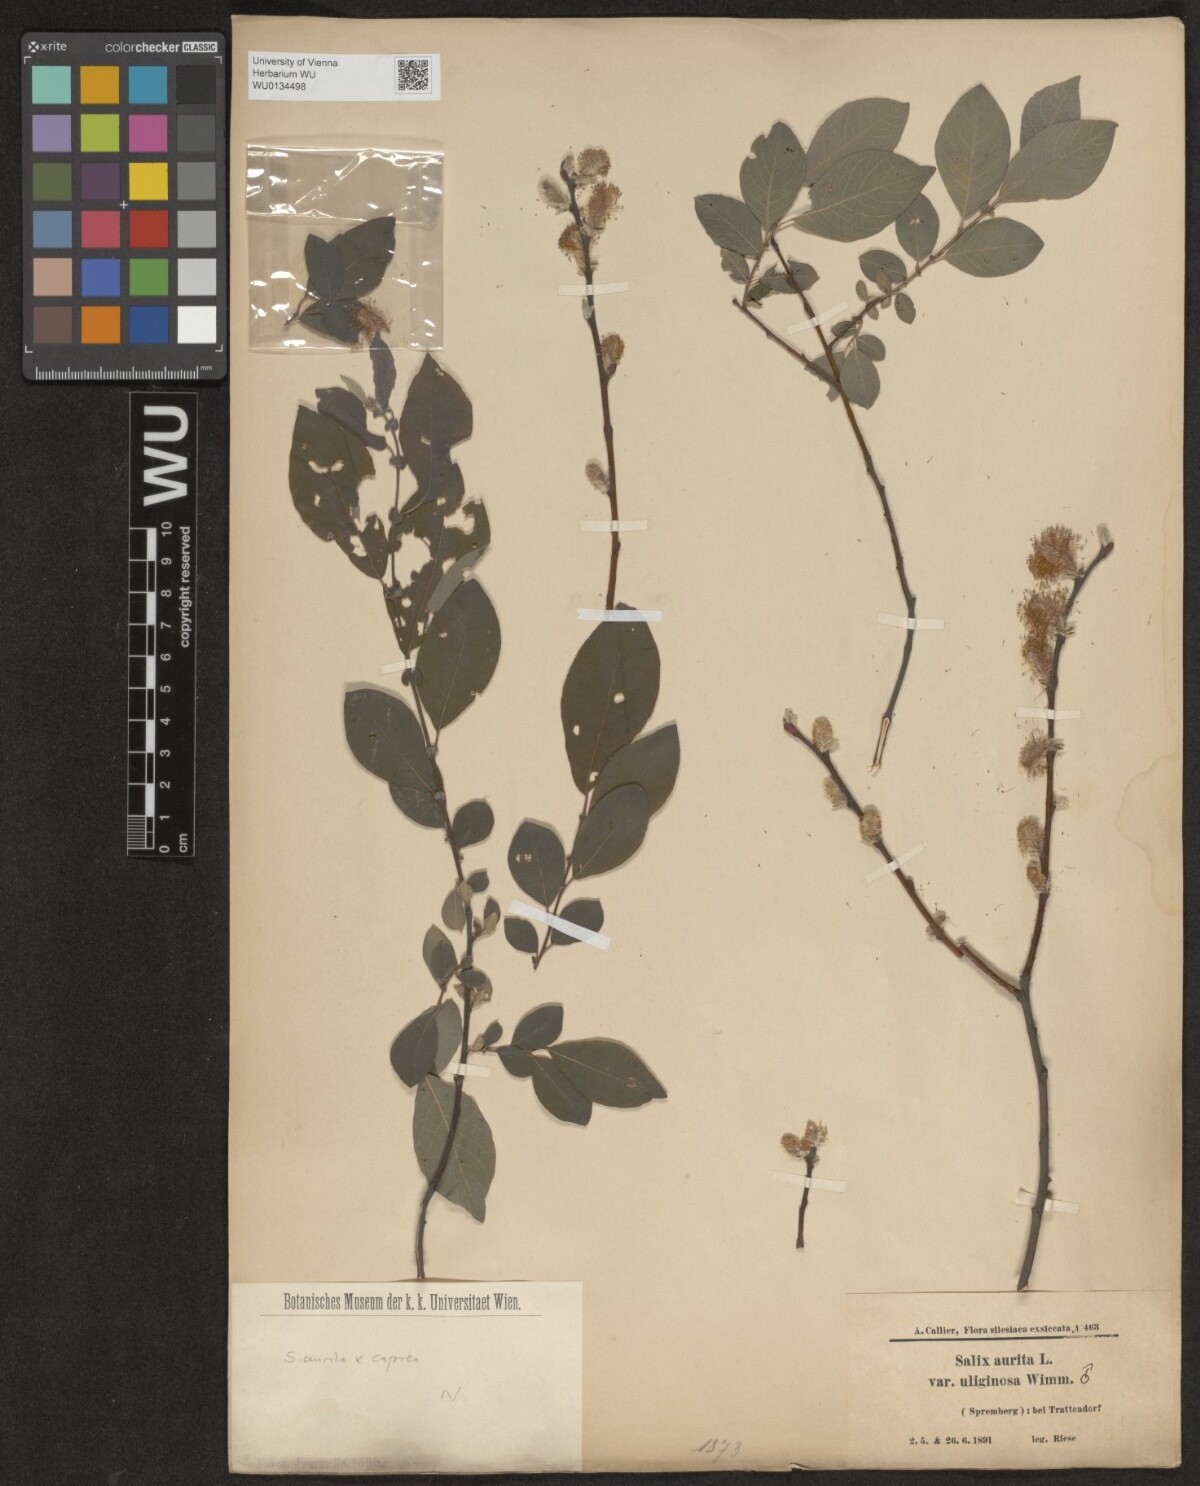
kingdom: Plantae
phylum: Tracheophyta
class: Magnoliopsida
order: Malpighiales
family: Salicaceae
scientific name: Salicaceae
